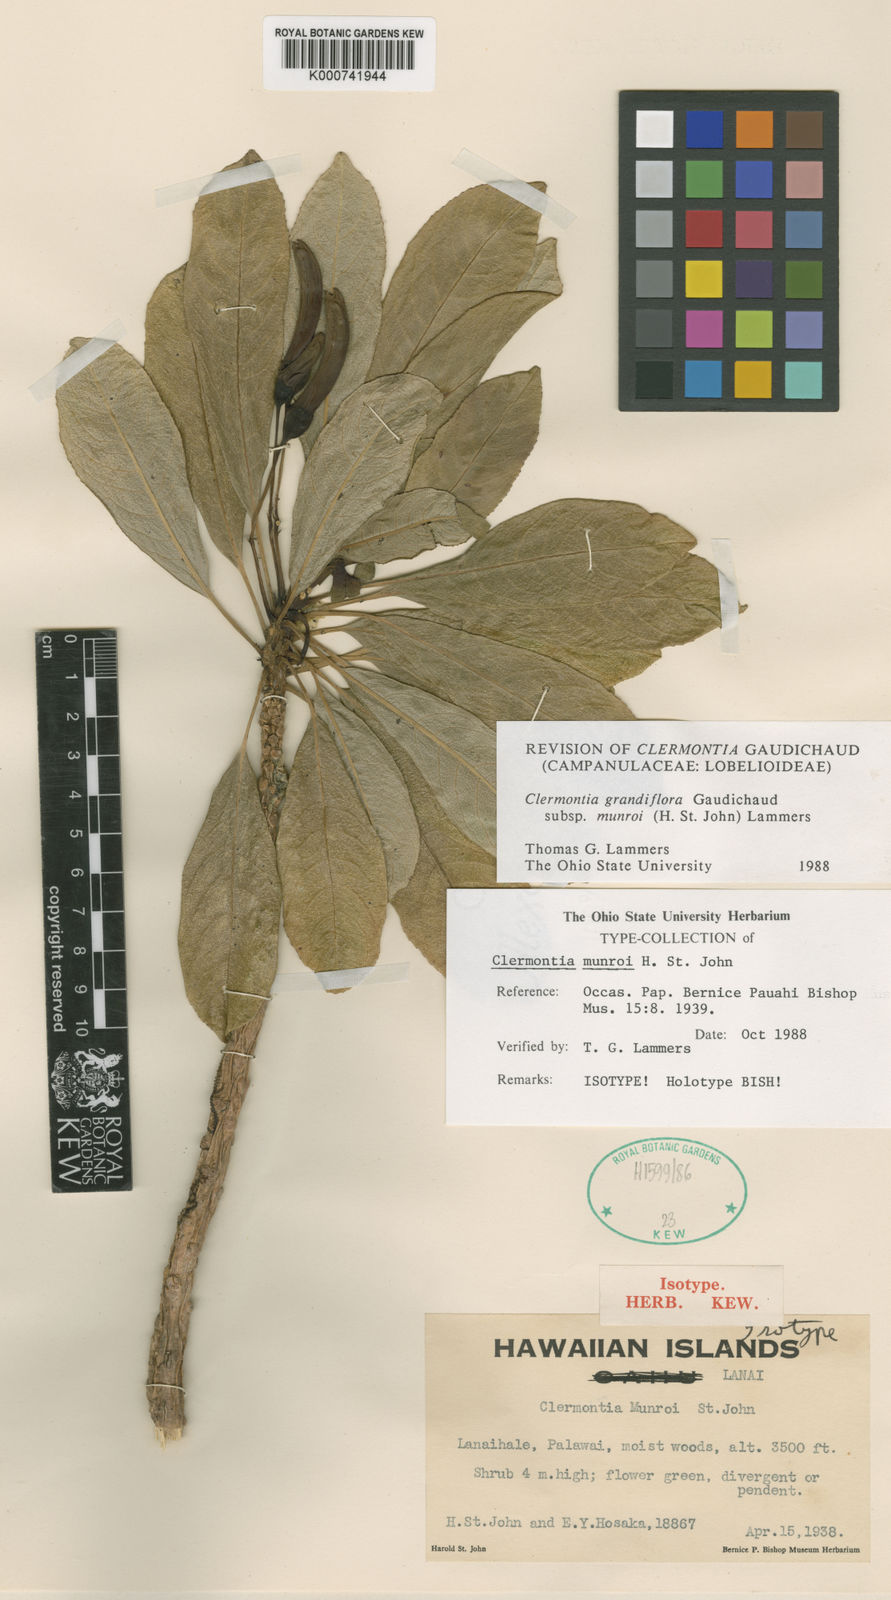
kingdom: Plantae
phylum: Tracheophyta
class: Magnoliopsida
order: Asterales
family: Campanulaceae
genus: Clermontia
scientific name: Clermontia grandiflora
